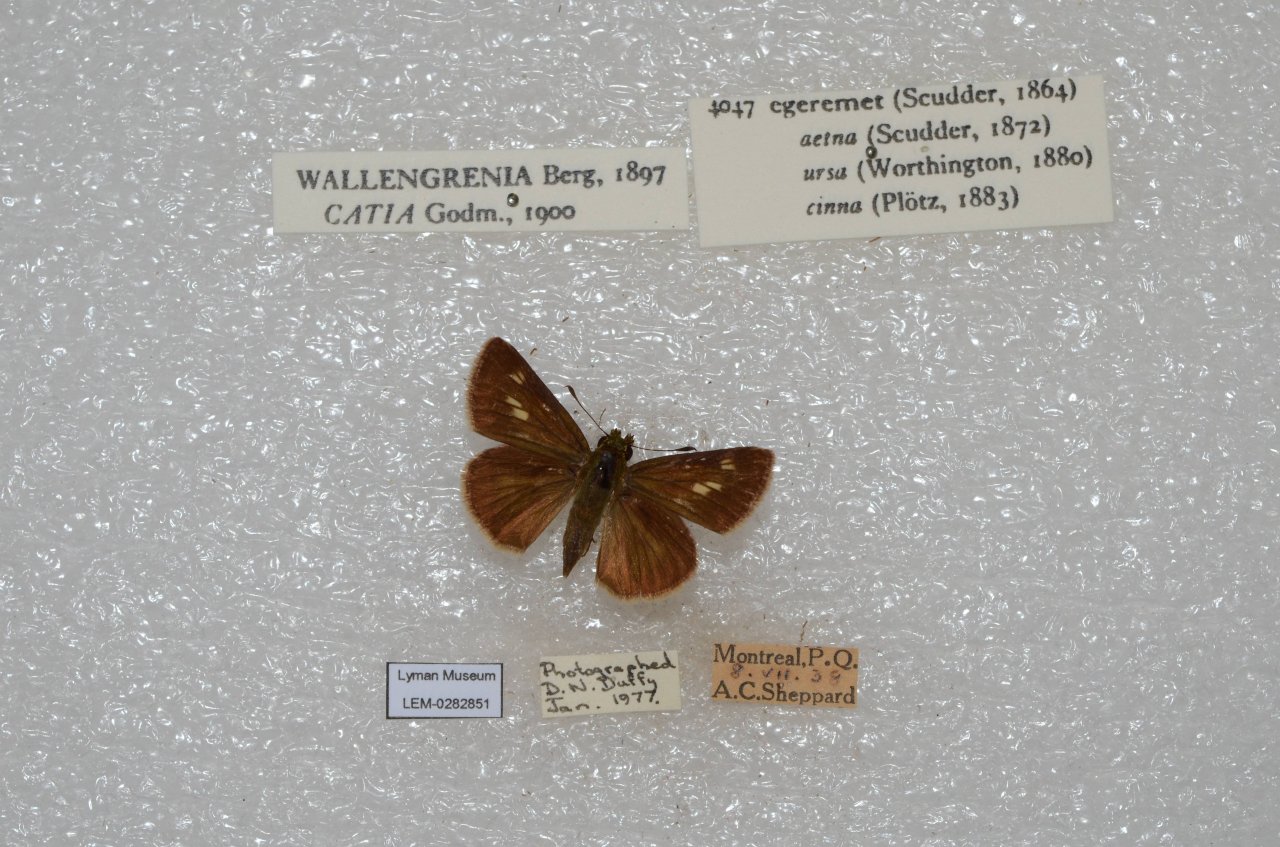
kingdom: Animalia
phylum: Arthropoda
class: Insecta
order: Lepidoptera
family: Hesperiidae
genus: Polites
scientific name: Polites egeremet
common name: Northern Broken-Dash
